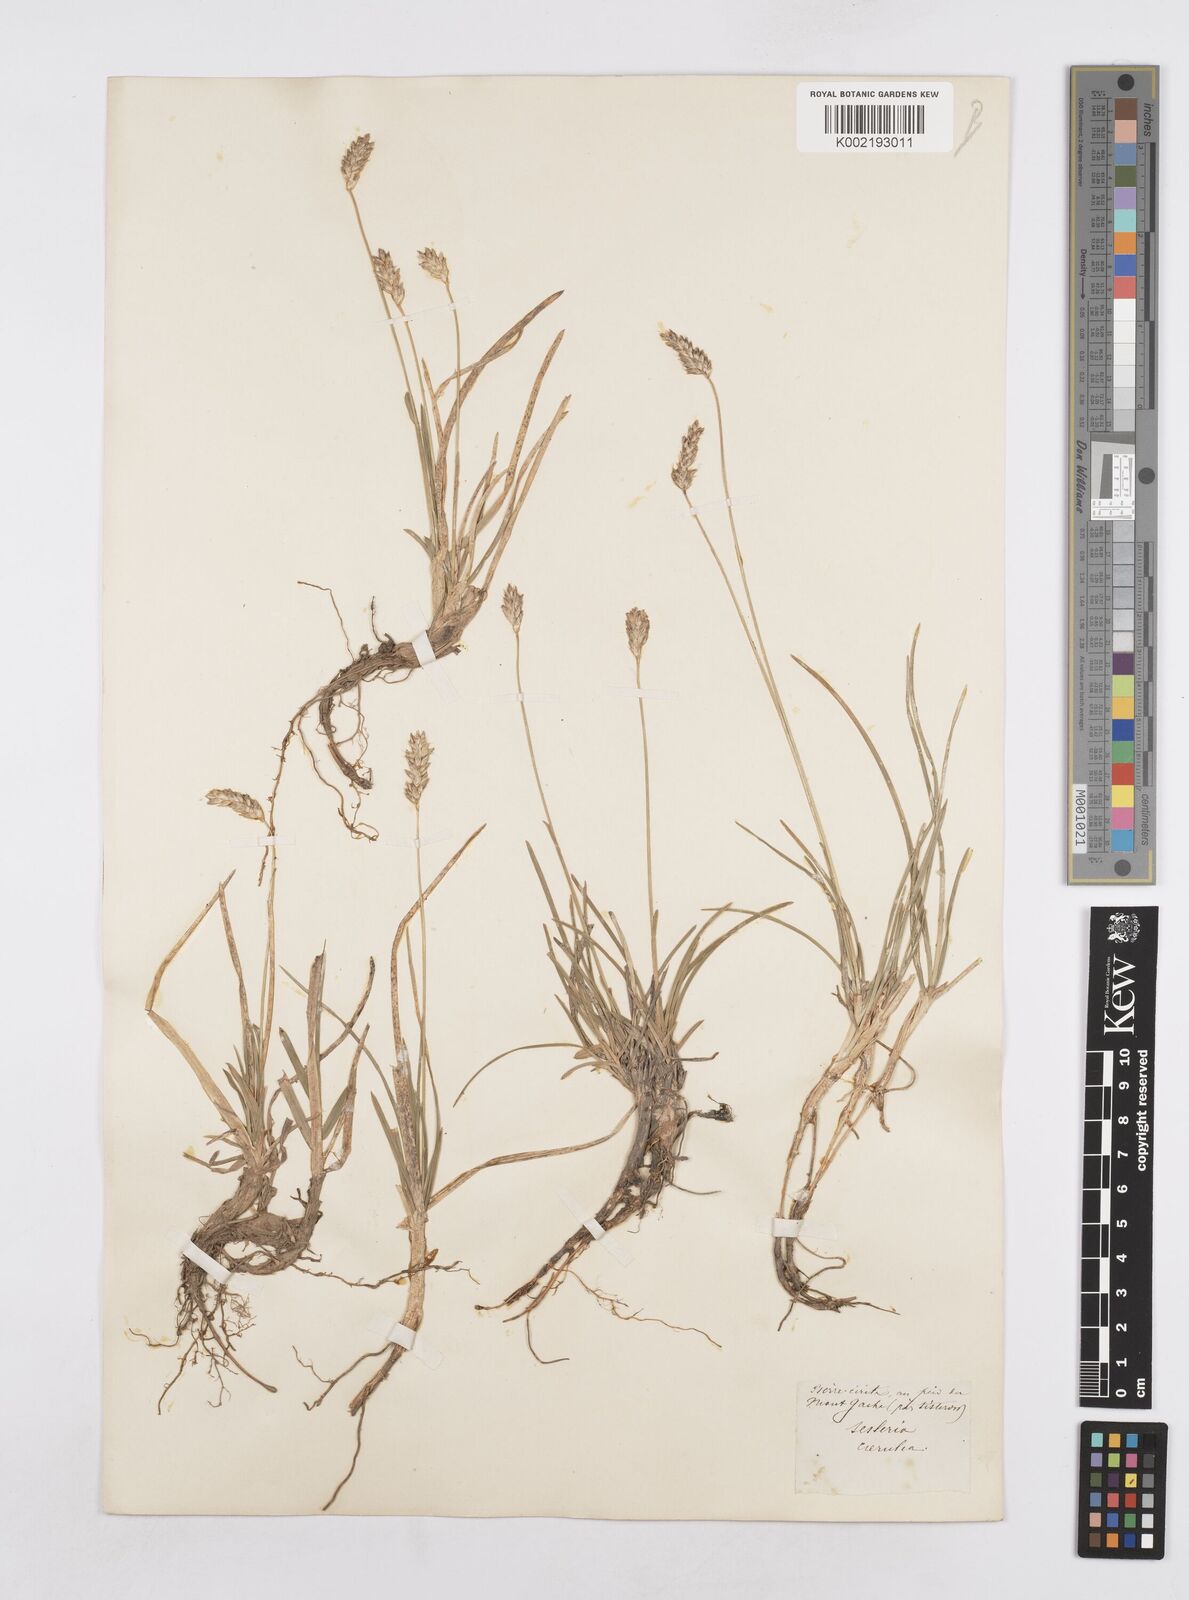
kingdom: Plantae
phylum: Tracheophyta
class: Liliopsida
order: Poales
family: Poaceae
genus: Sesleria
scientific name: Sesleria caerulea
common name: Blue moor-grass
